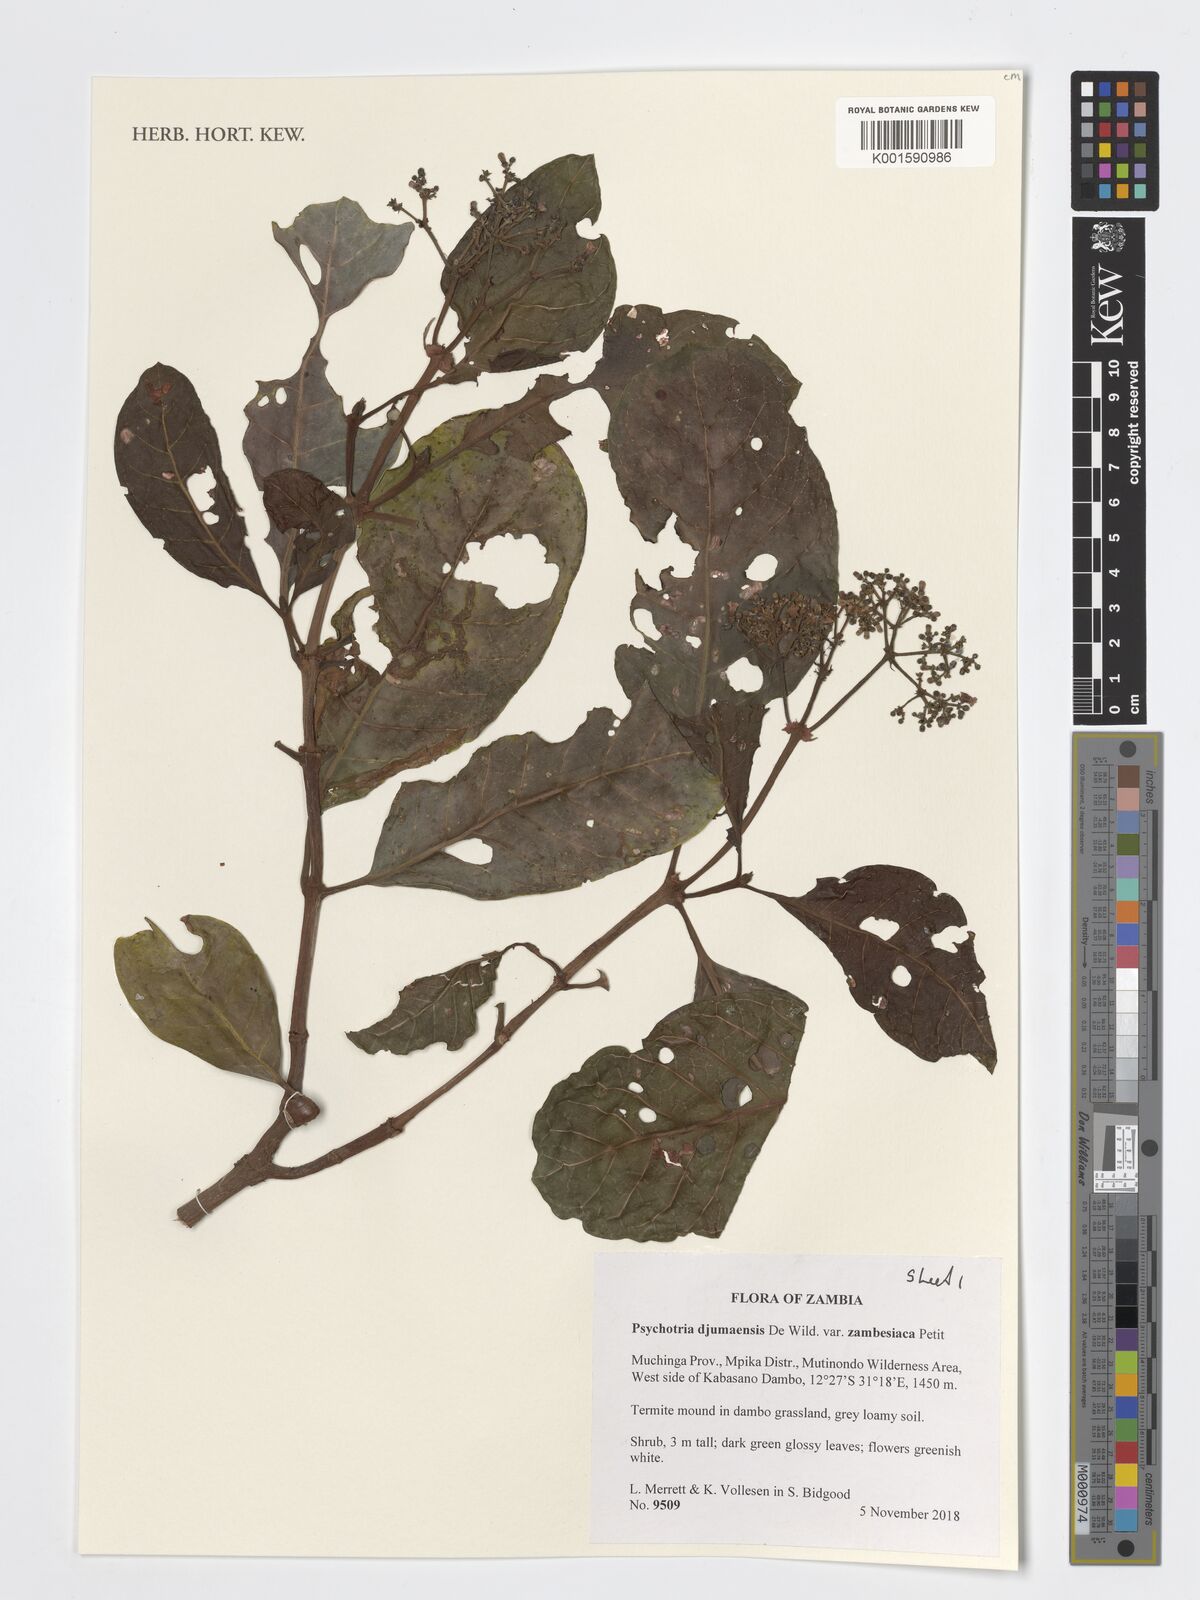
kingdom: Plantae
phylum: Tracheophyta
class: Magnoliopsida
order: Gentianales
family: Rubiaceae
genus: Psychotria
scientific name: Psychotria djumaensis
